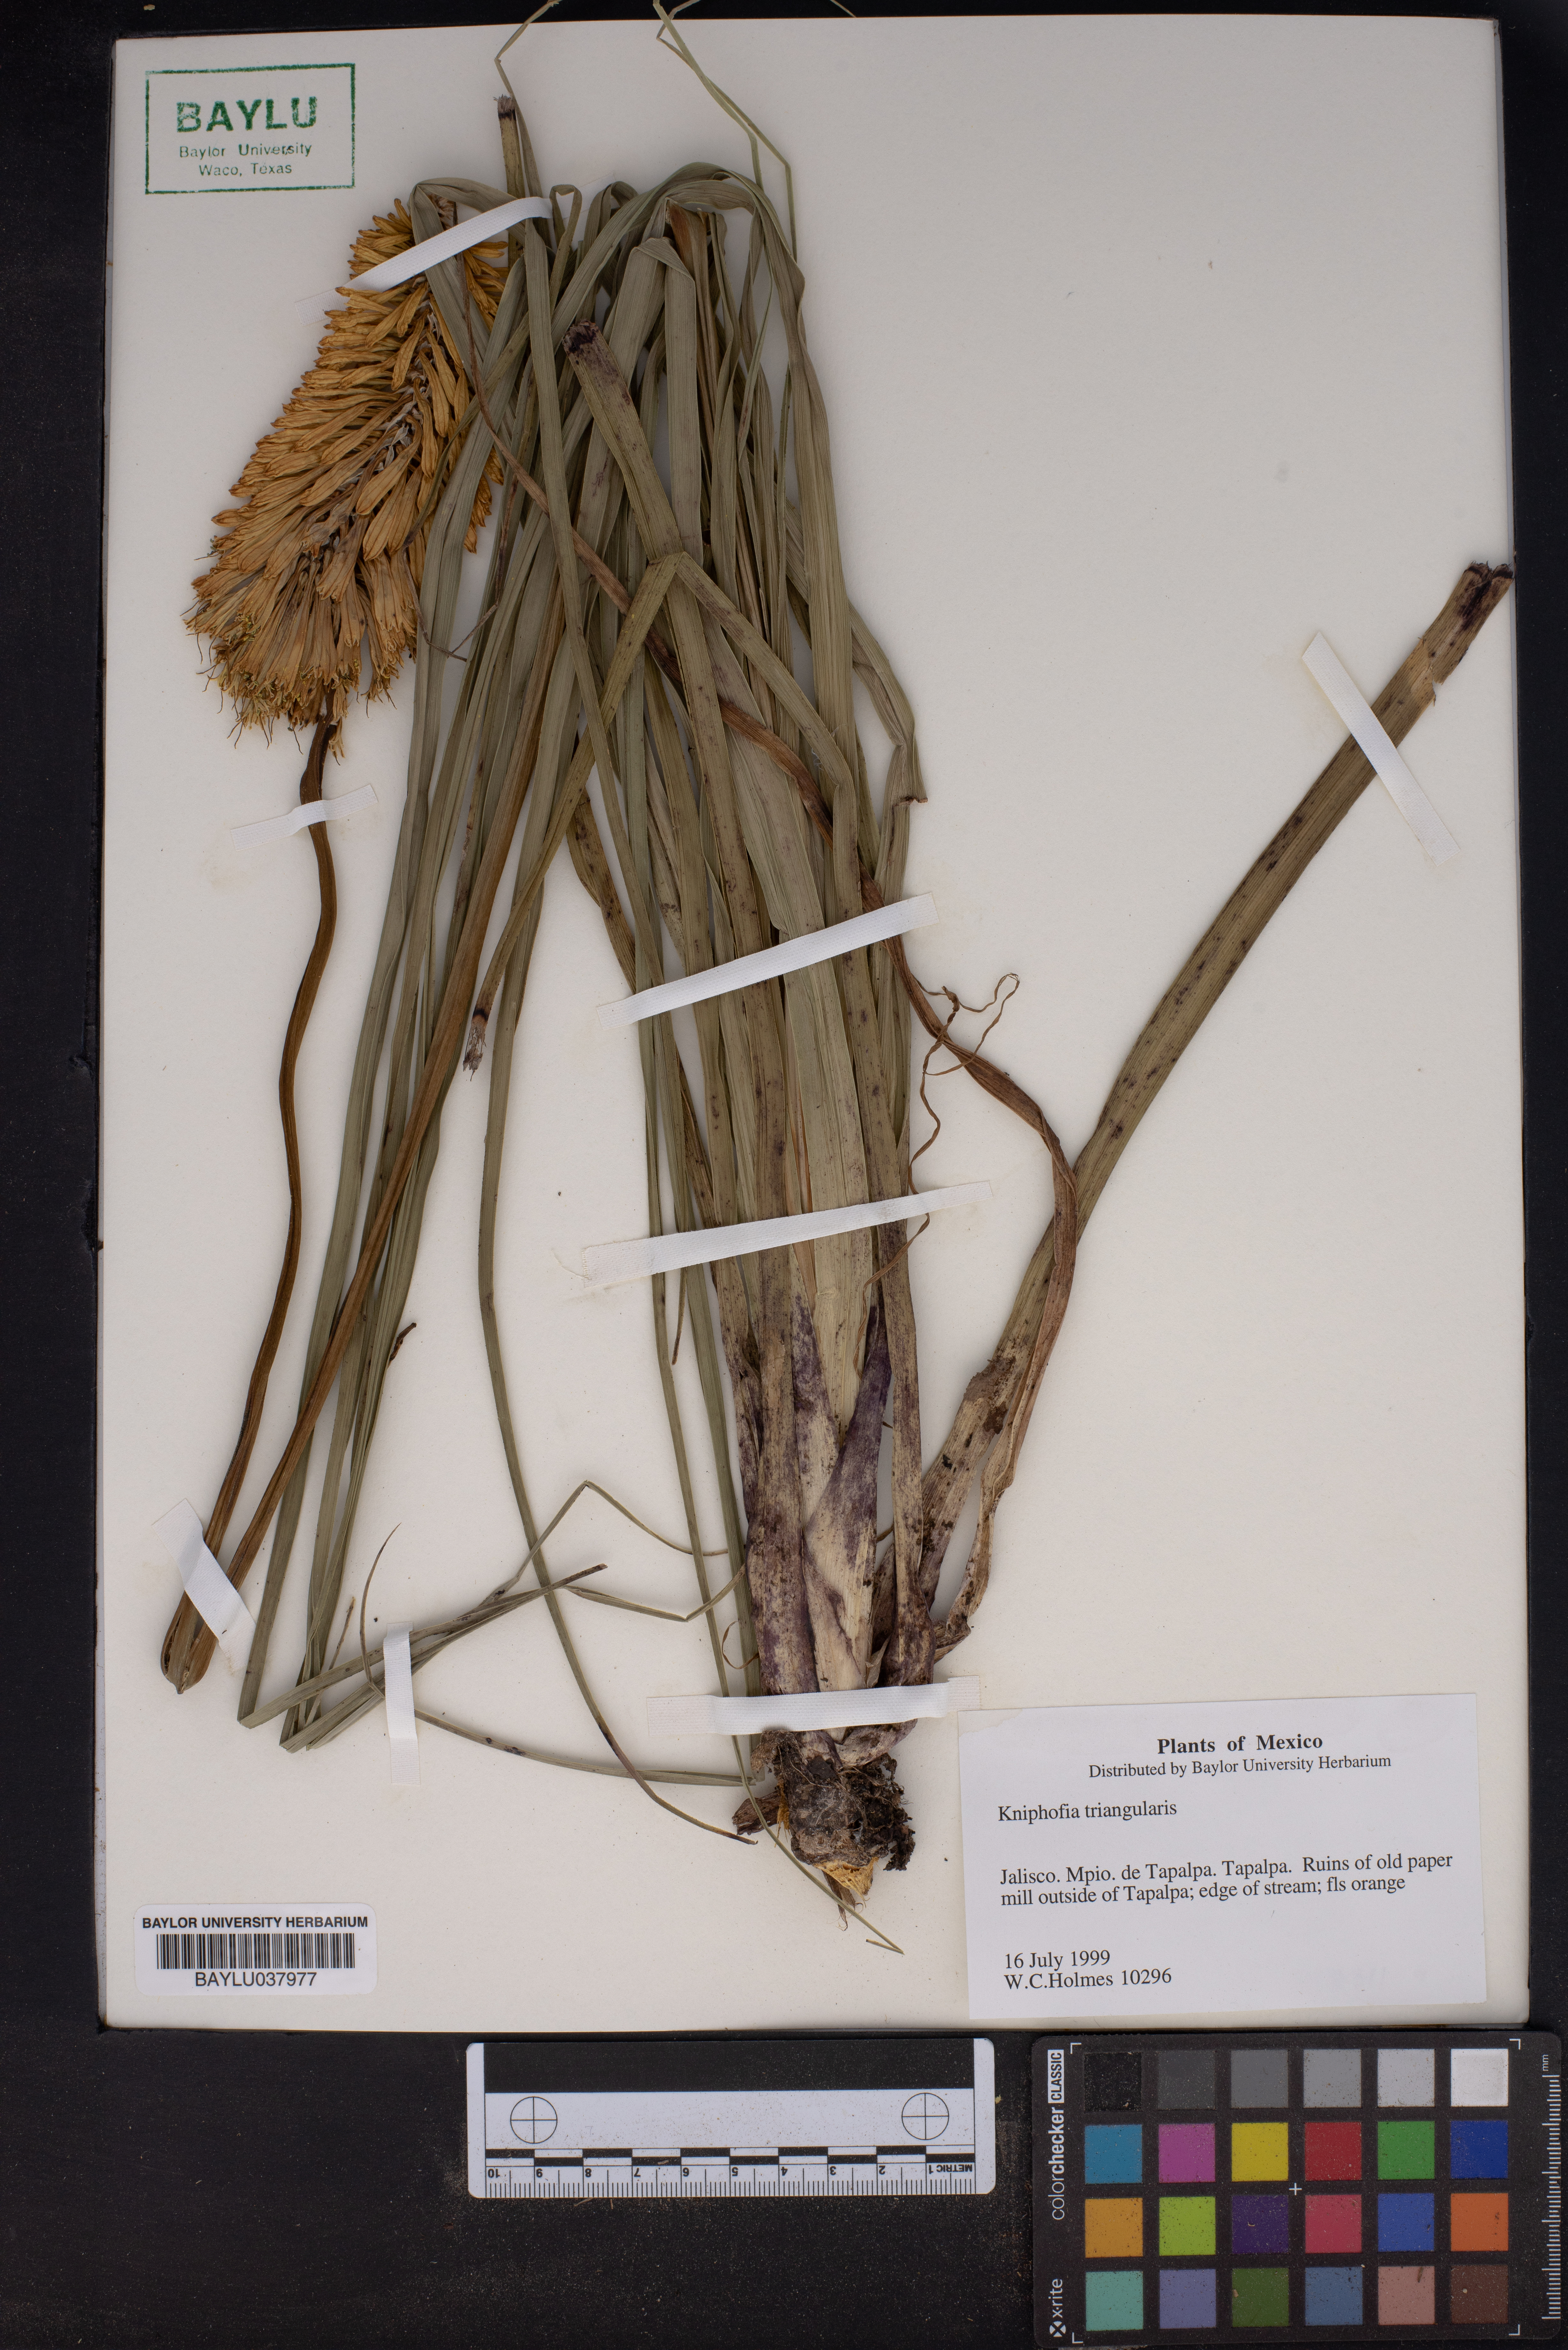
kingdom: Plantae
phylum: Tracheophyta
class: Liliopsida
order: Asparagales
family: Asphodelaceae
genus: Kniphofia
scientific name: Kniphofia
